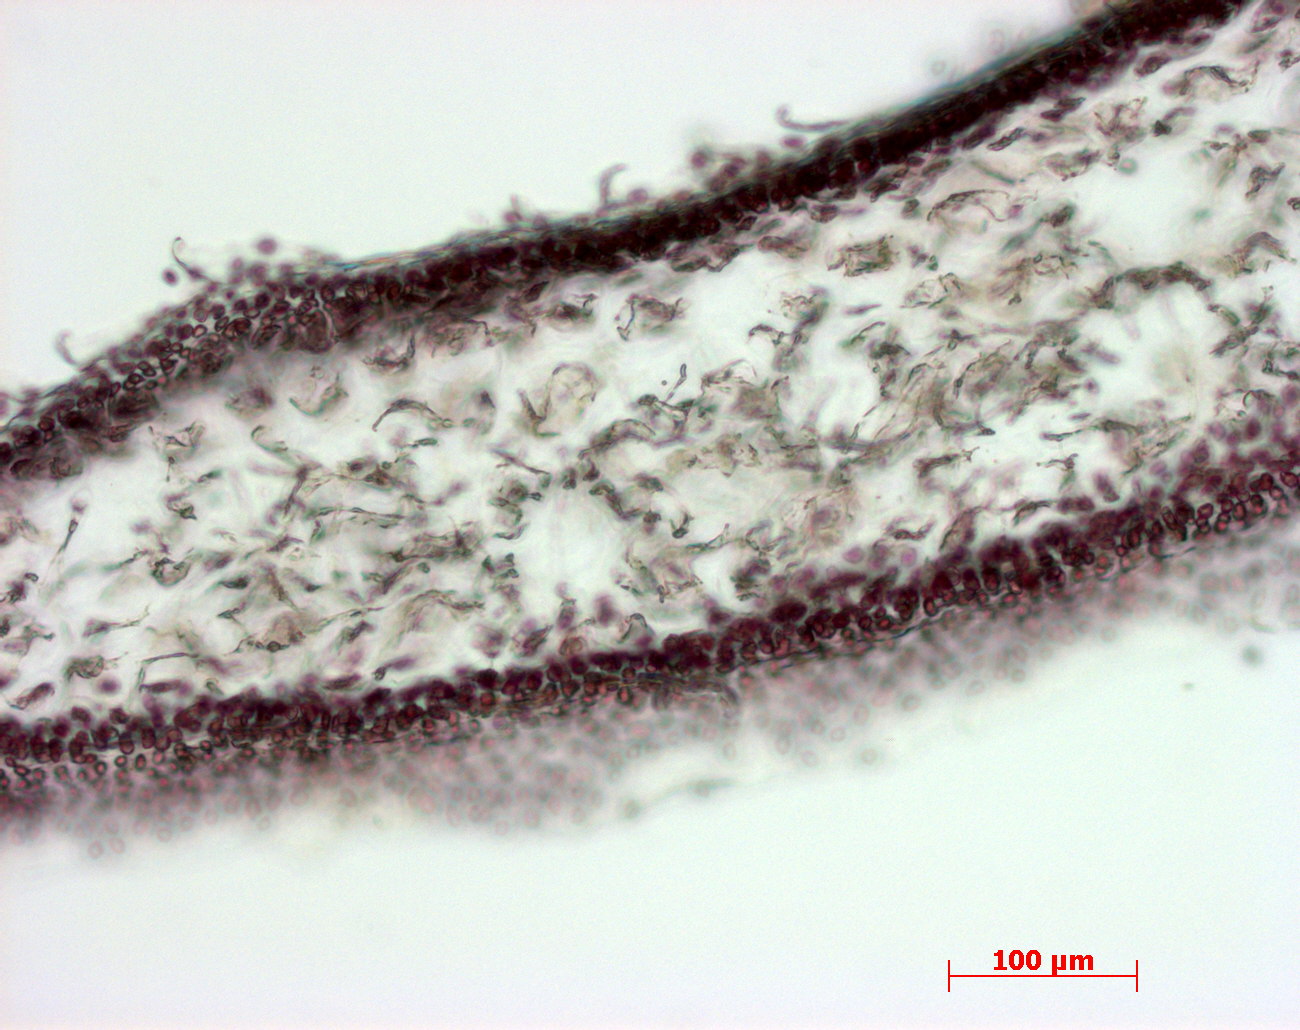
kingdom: Plantae
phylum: Rhodophyta
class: Florideophyceae
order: Gigartinales
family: Kallymeniaceae
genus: Thamnophyllis
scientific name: Thamnophyllis
